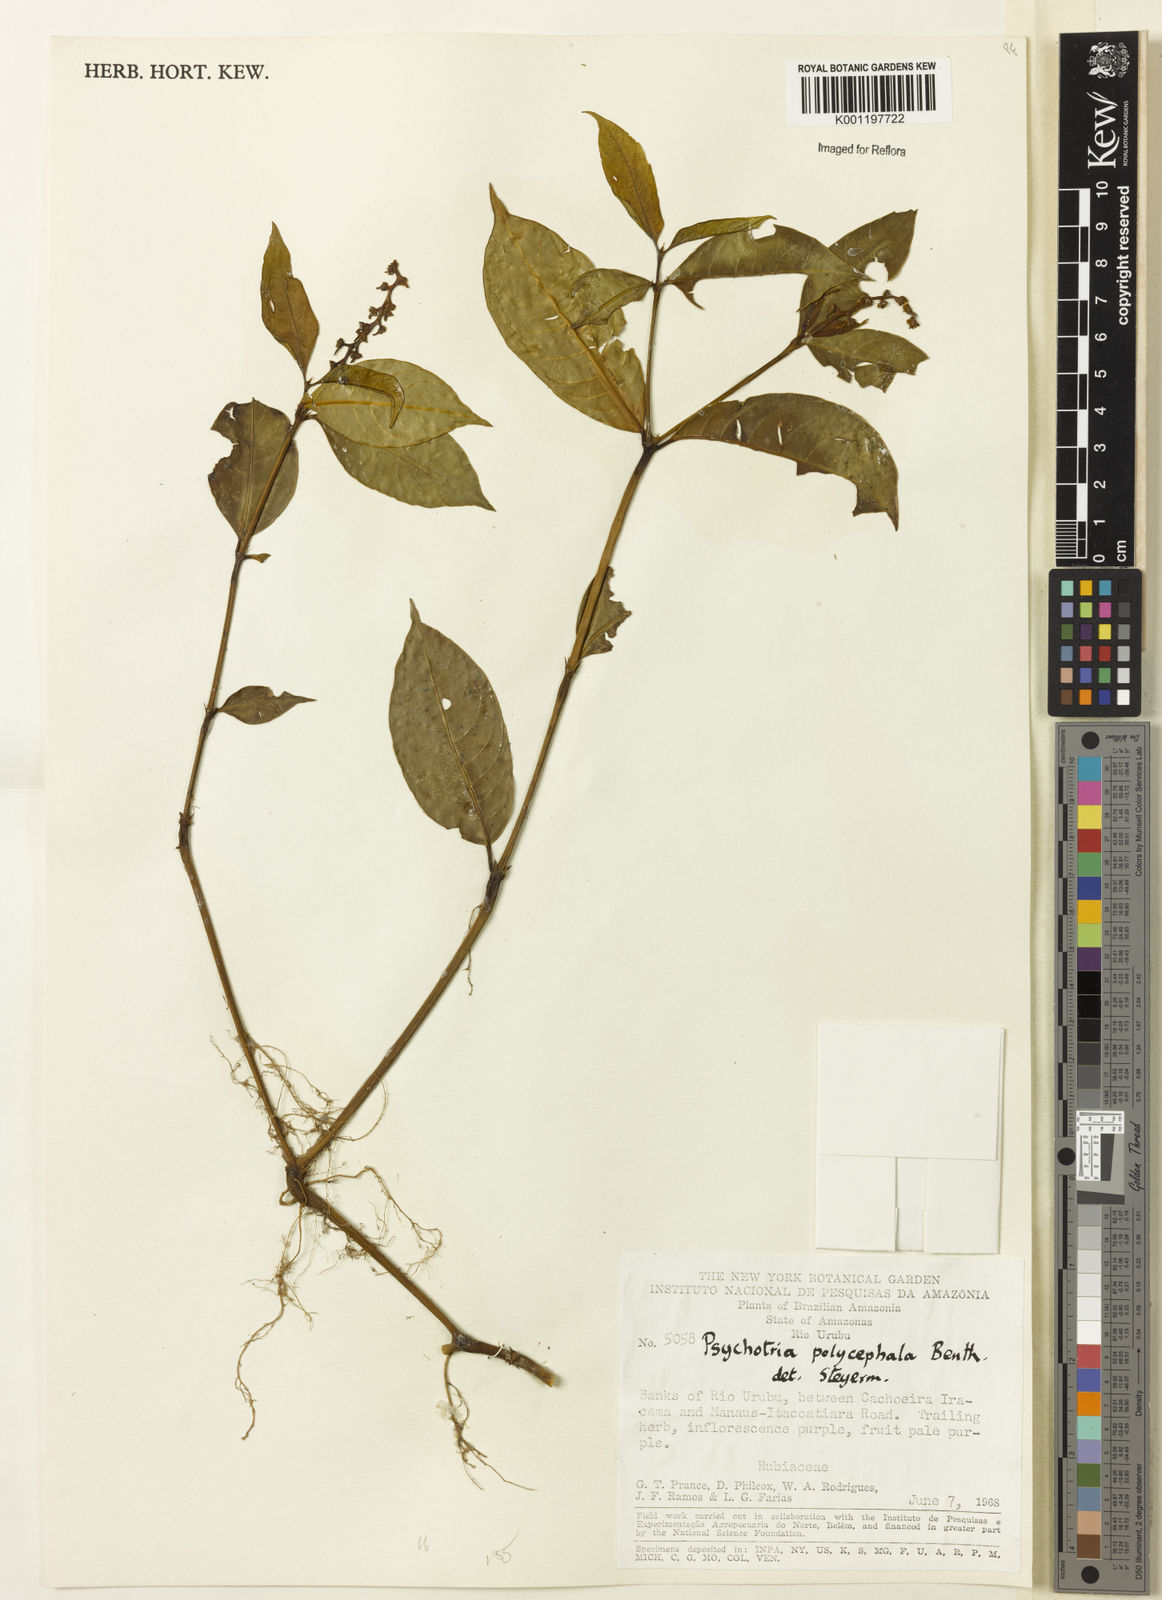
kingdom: Plantae
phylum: Tracheophyta
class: Magnoliopsida
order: Gentianales
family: Rubiaceae
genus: Palicourea
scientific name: Palicourea polycephala
